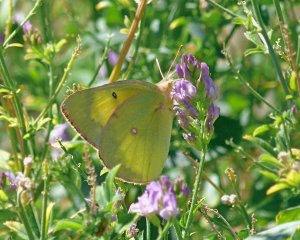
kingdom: Animalia
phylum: Arthropoda
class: Insecta
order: Lepidoptera
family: Pieridae
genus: Colias
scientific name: Colias philodice
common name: Clouded Sulphur
